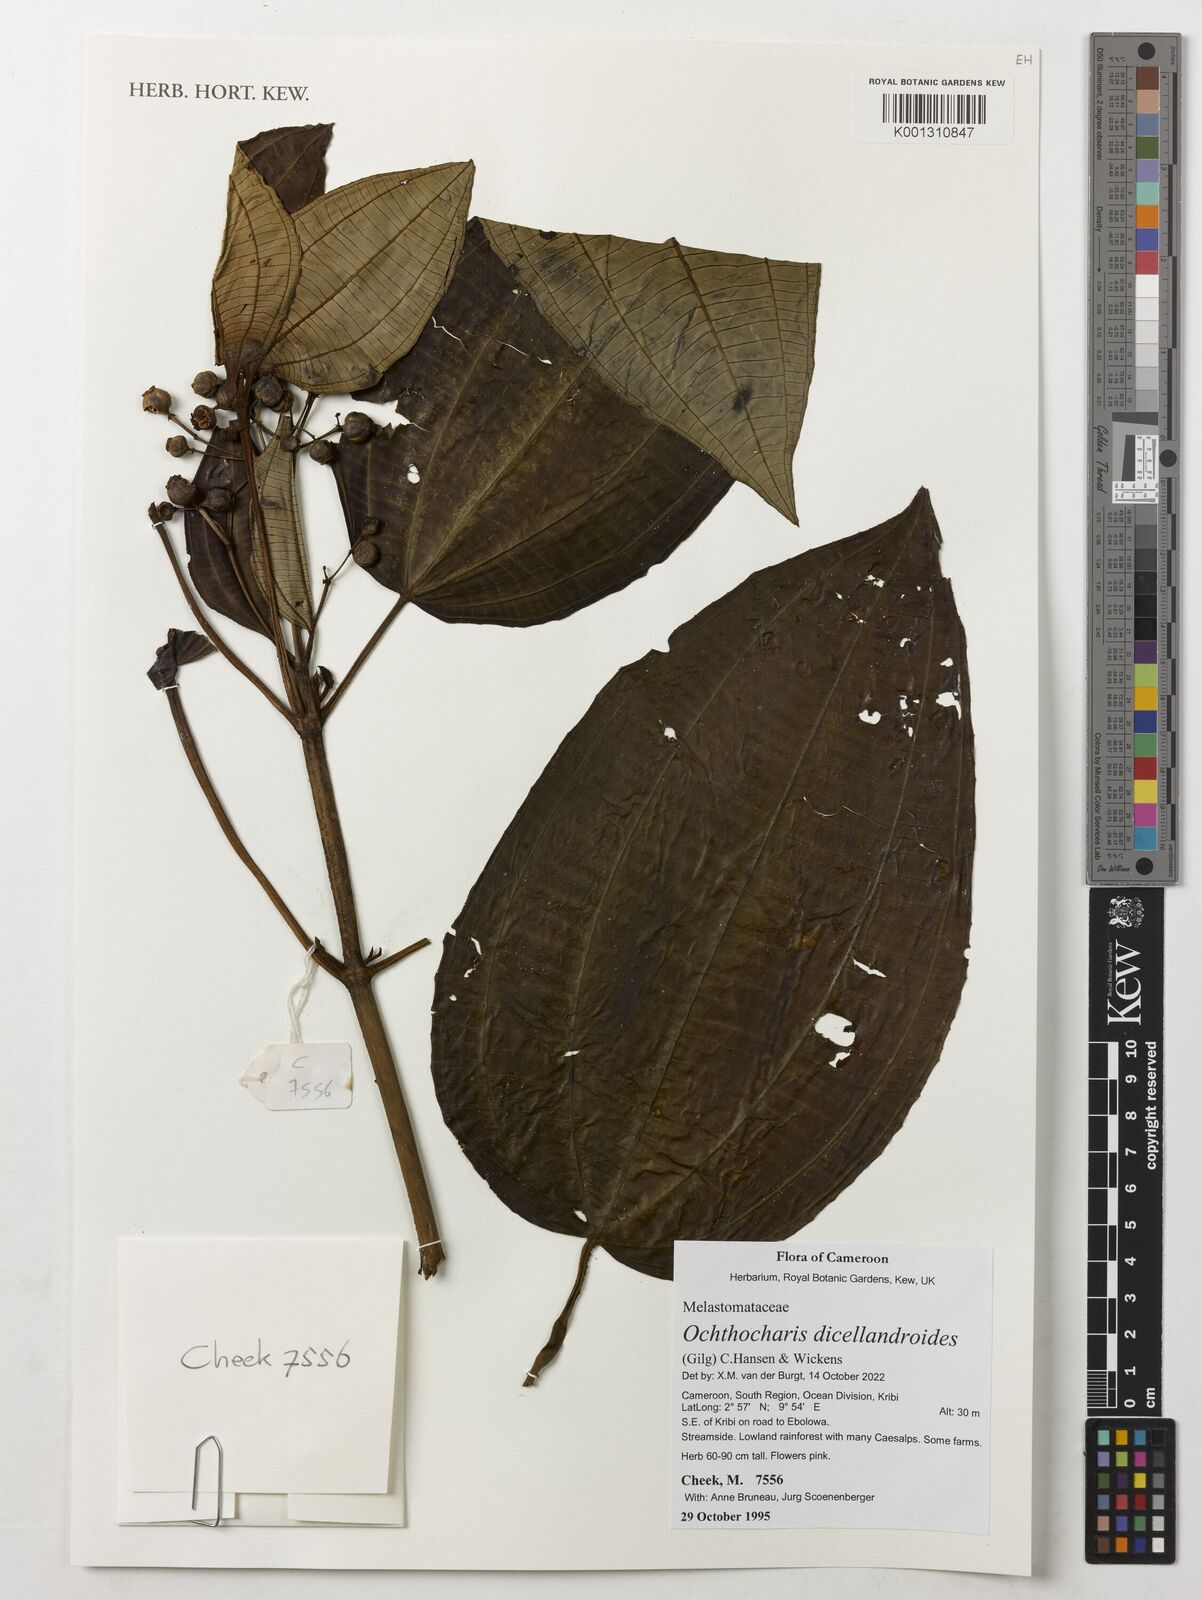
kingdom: Plantae
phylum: Tracheophyta
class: Magnoliopsida
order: Myrtales
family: Melastomataceae
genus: Ochthocharis
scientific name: Ochthocharis dicellandroides
